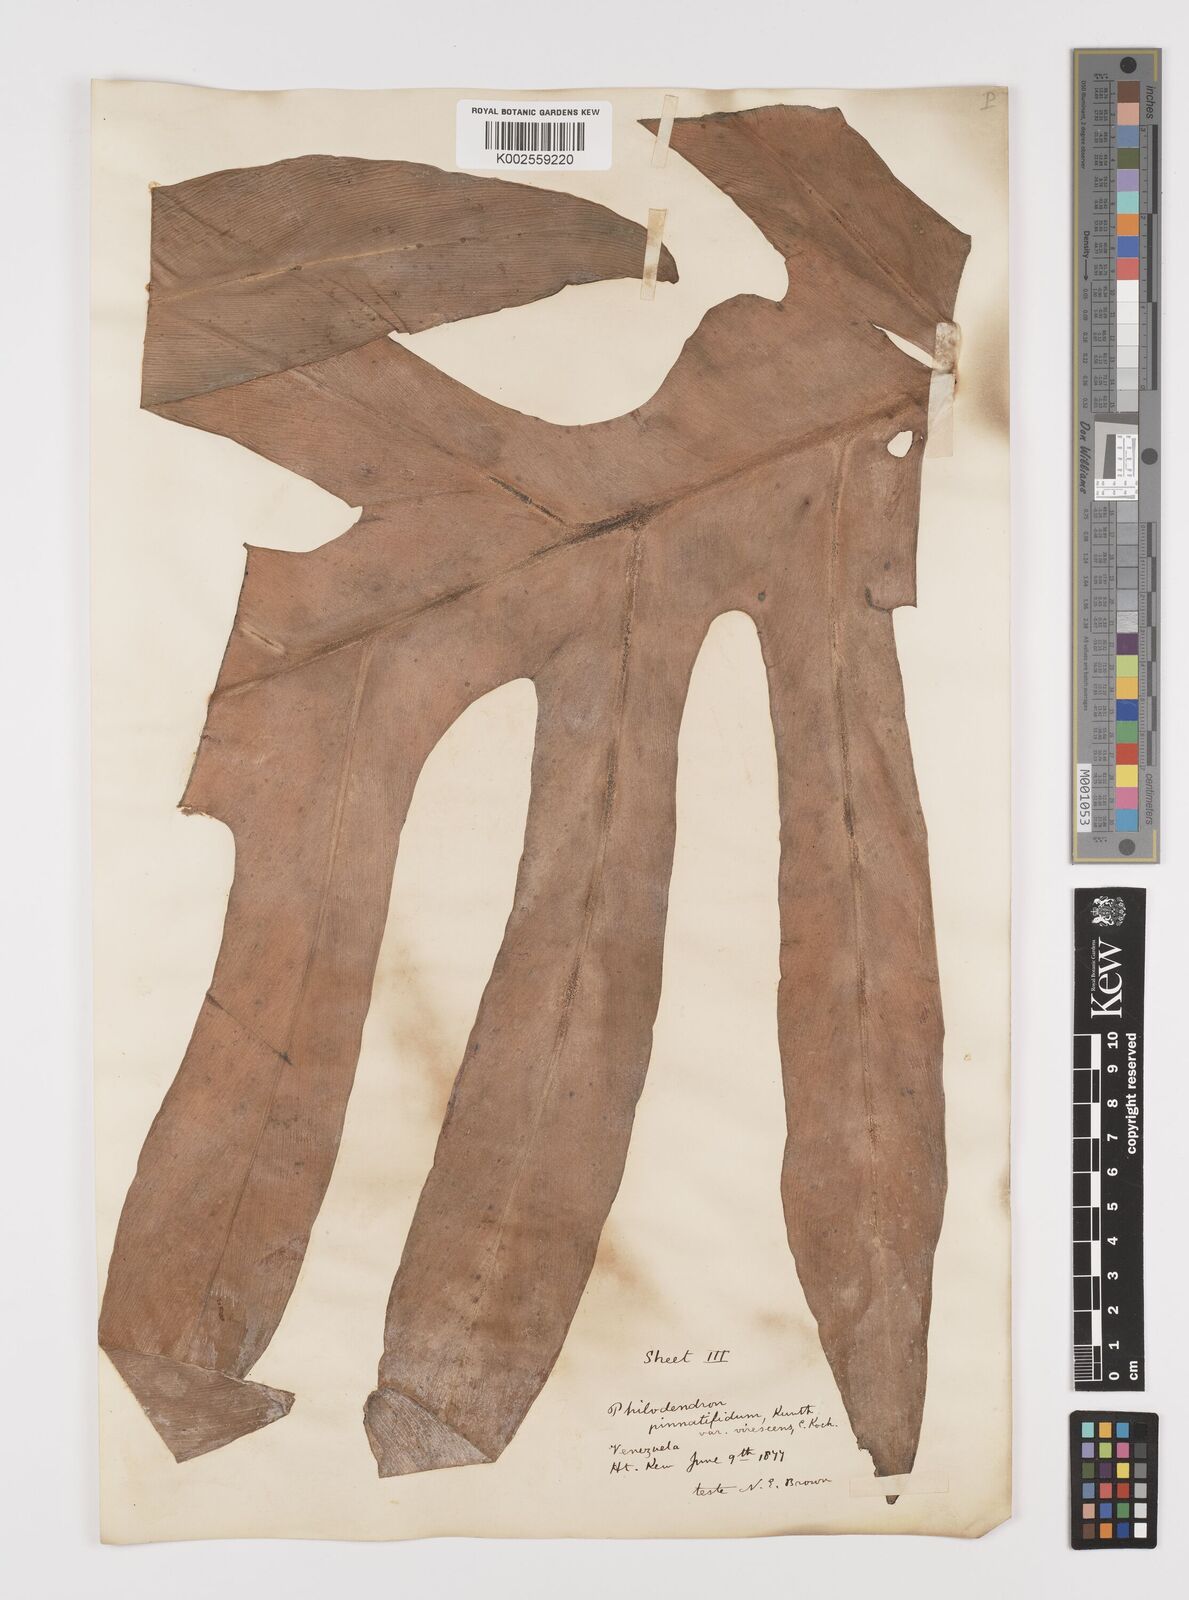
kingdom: Plantae
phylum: Tracheophyta
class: Liliopsida
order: Alismatales
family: Araceae
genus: Philodendron
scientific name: Philodendron pinnatifidum
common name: Comb-leaf philodendron
